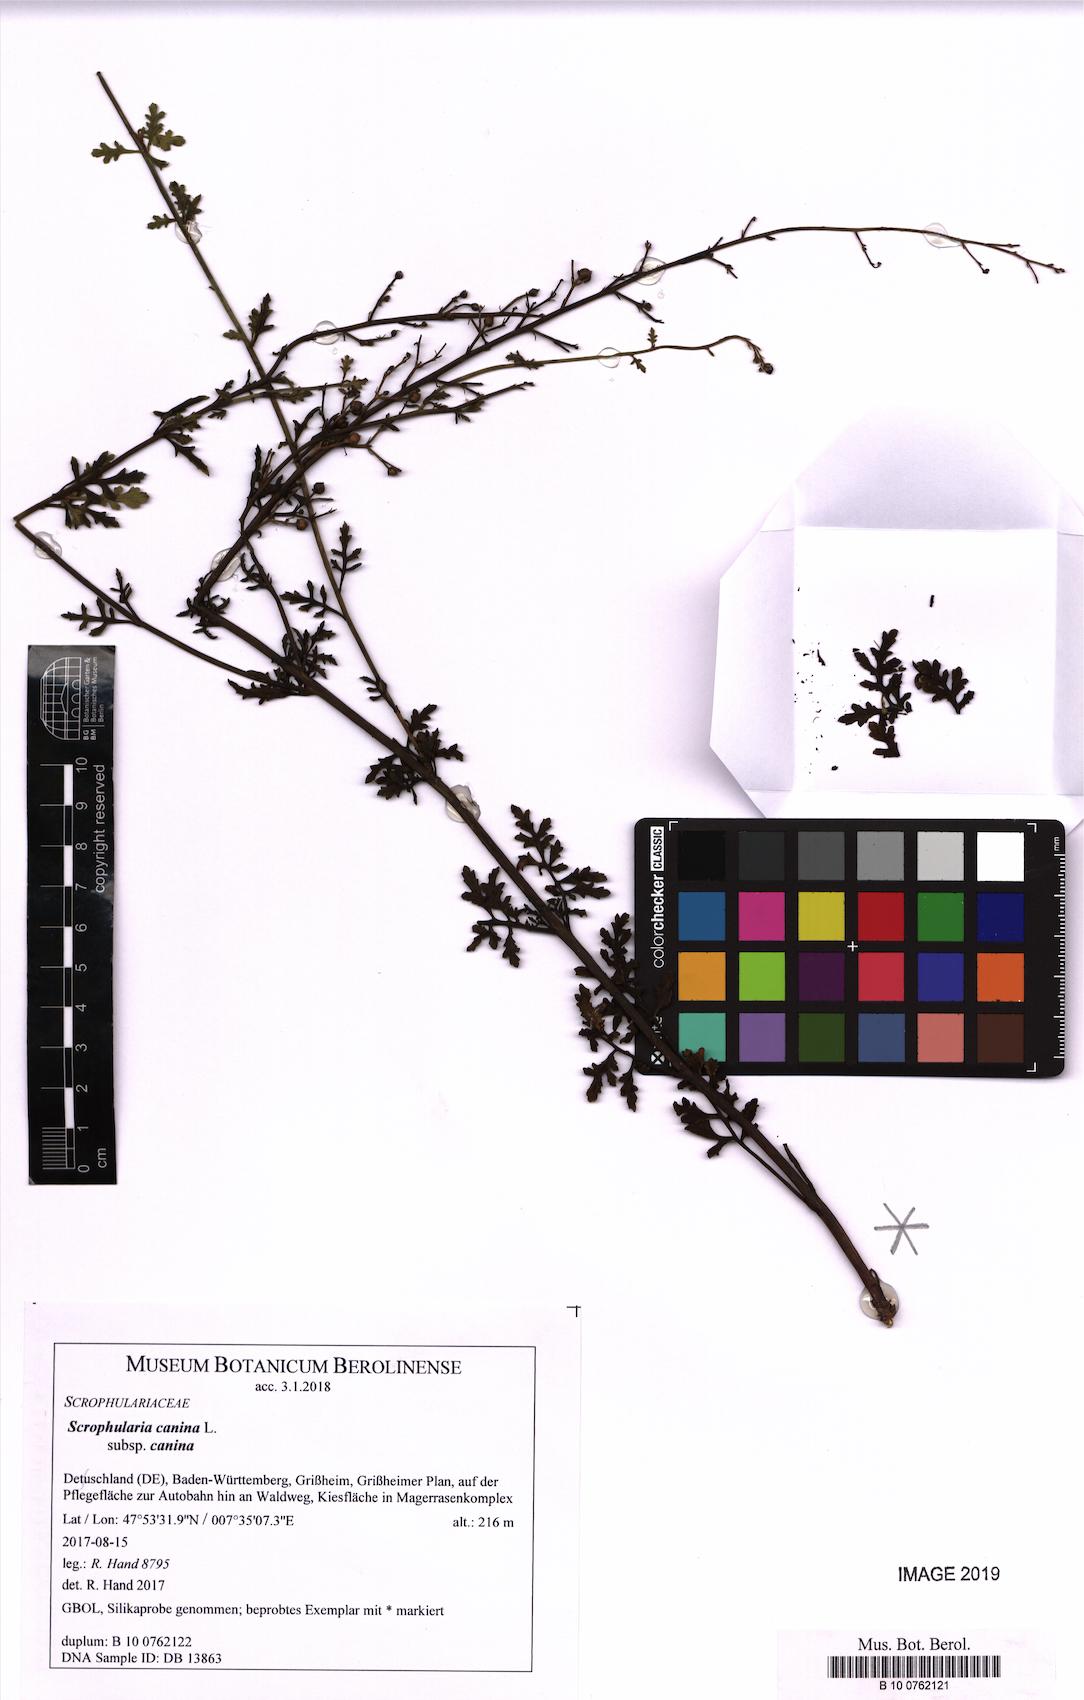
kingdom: Plantae
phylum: Tracheophyta
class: Magnoliopsida
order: Lamiales
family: Scrophulariaceae
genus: Scrophularia
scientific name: Scrophularia canina
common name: French figwort
